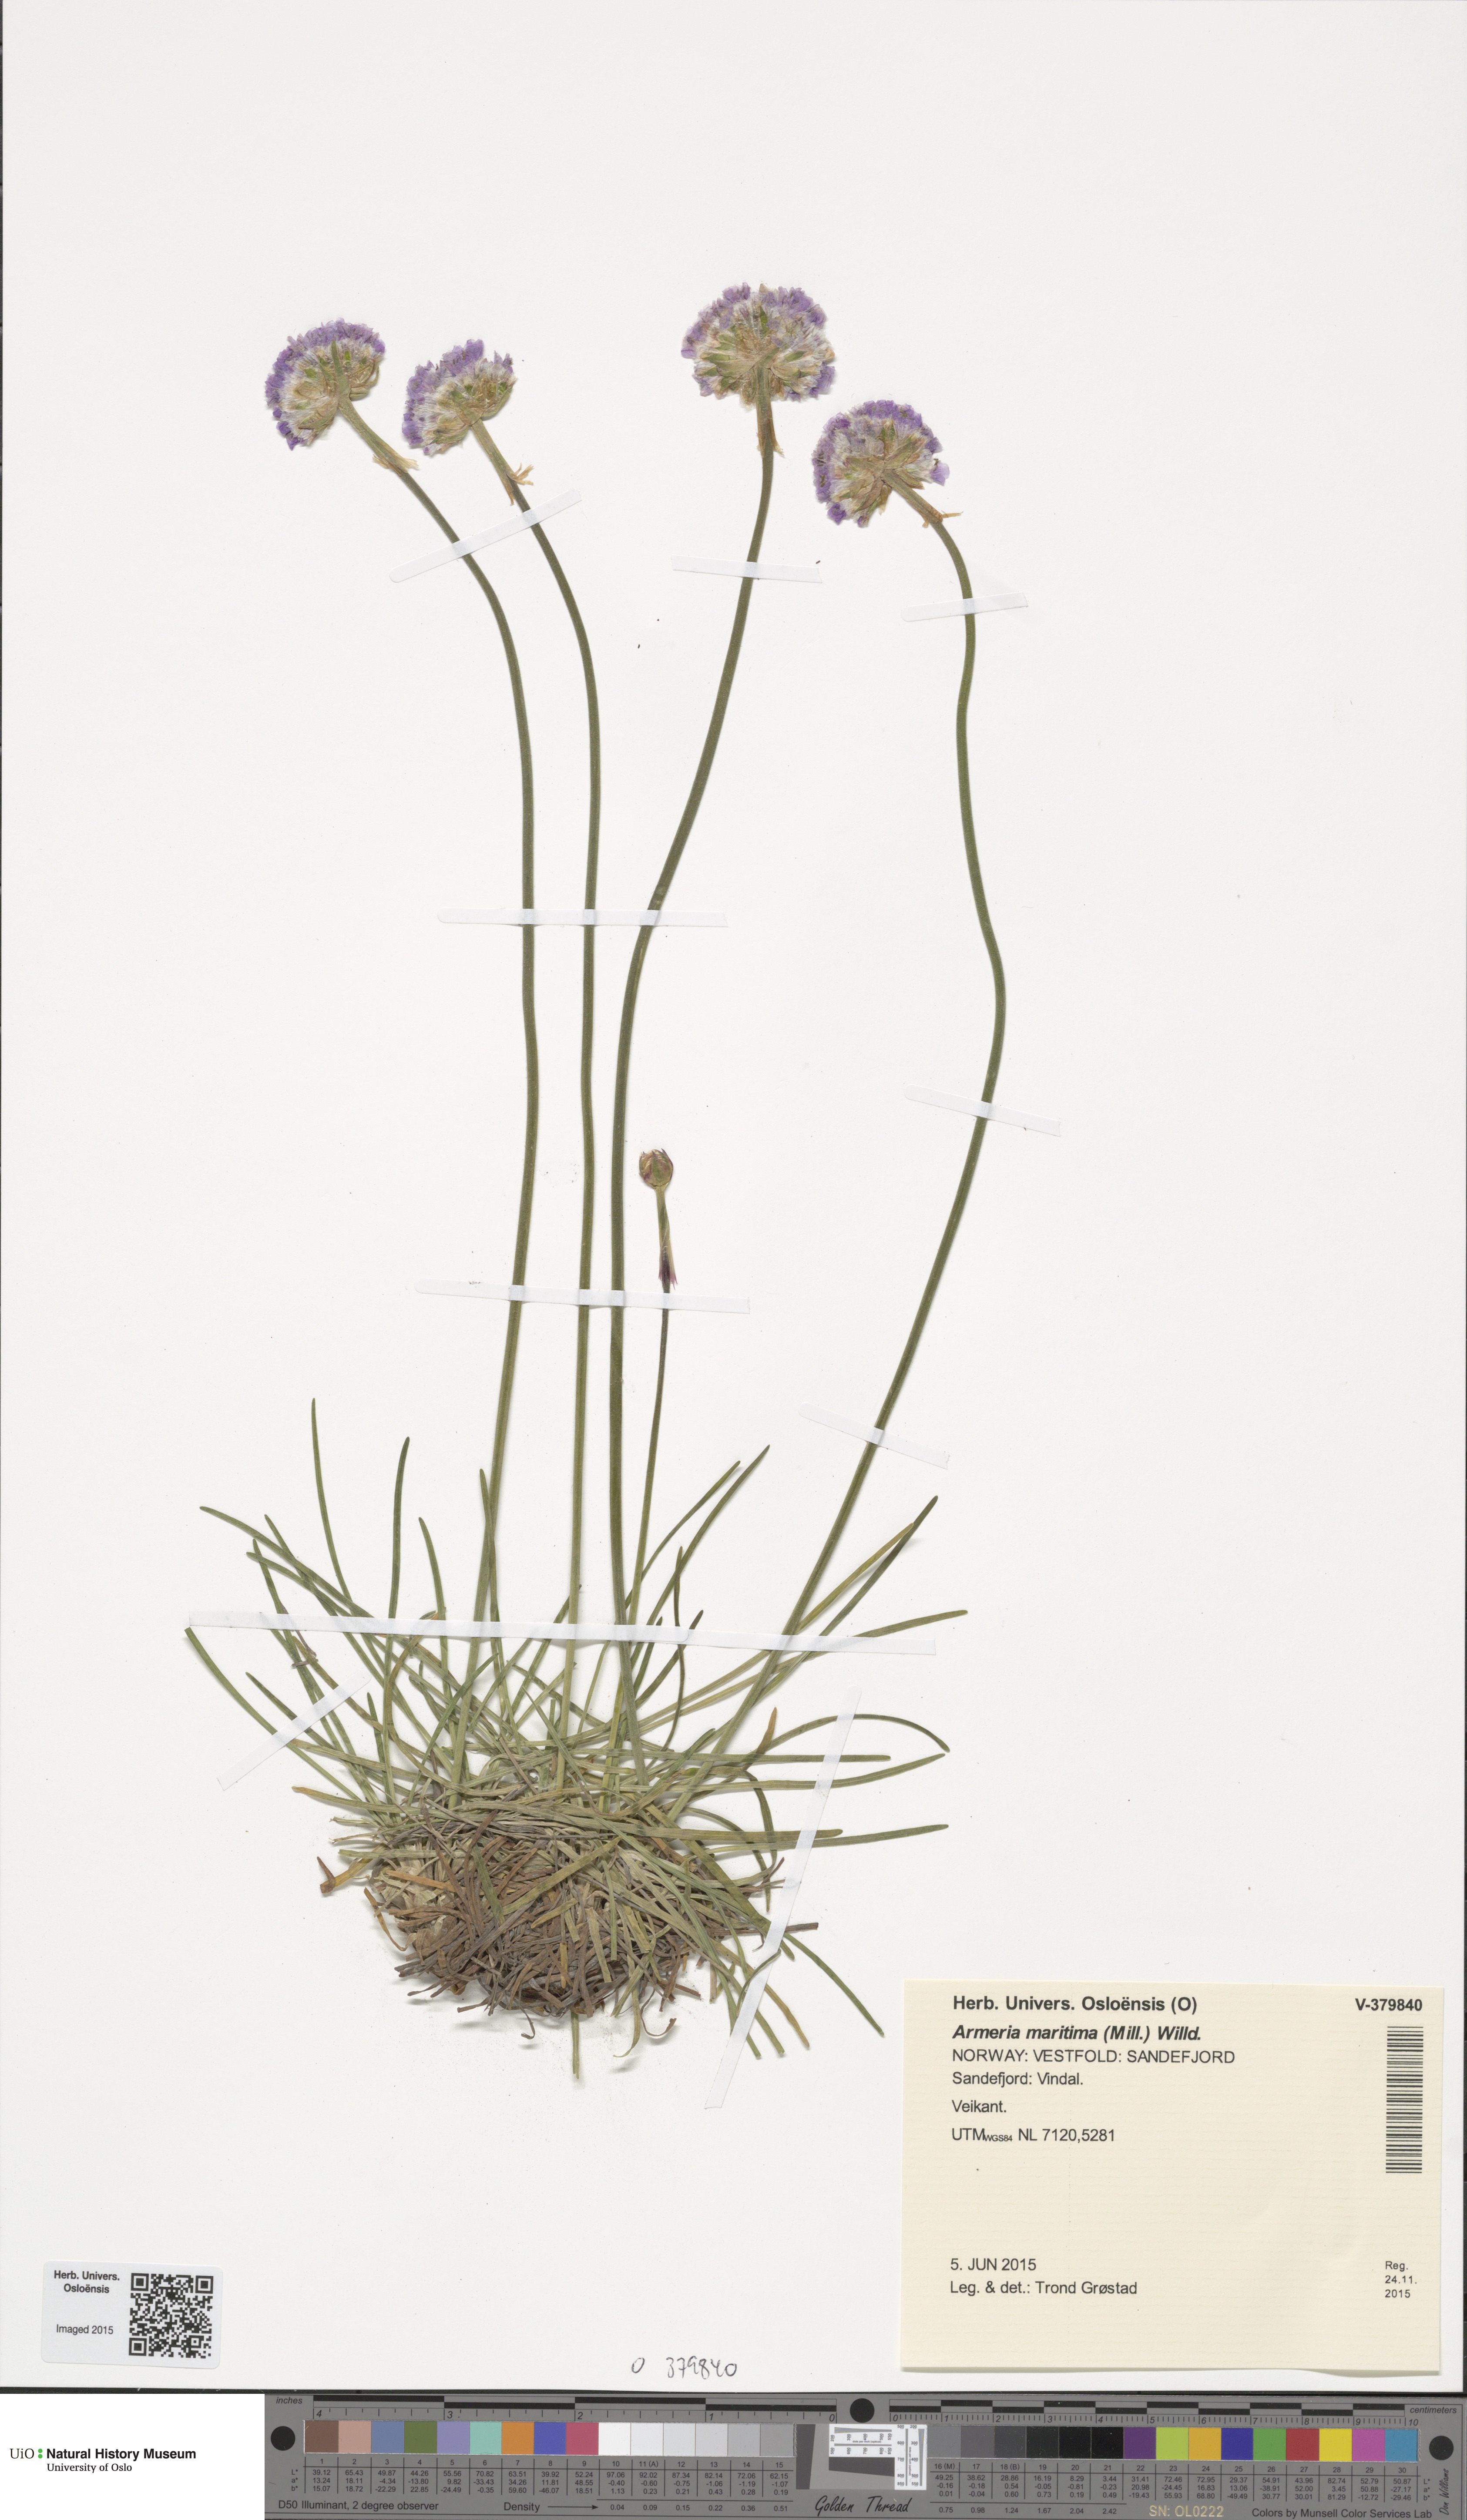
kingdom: Plantae
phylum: Tracheophyta
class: Magnoliopsida
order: Caryophyllales
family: Plumbaginaceae
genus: Armeria
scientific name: Armeria maritima
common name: Thrift
